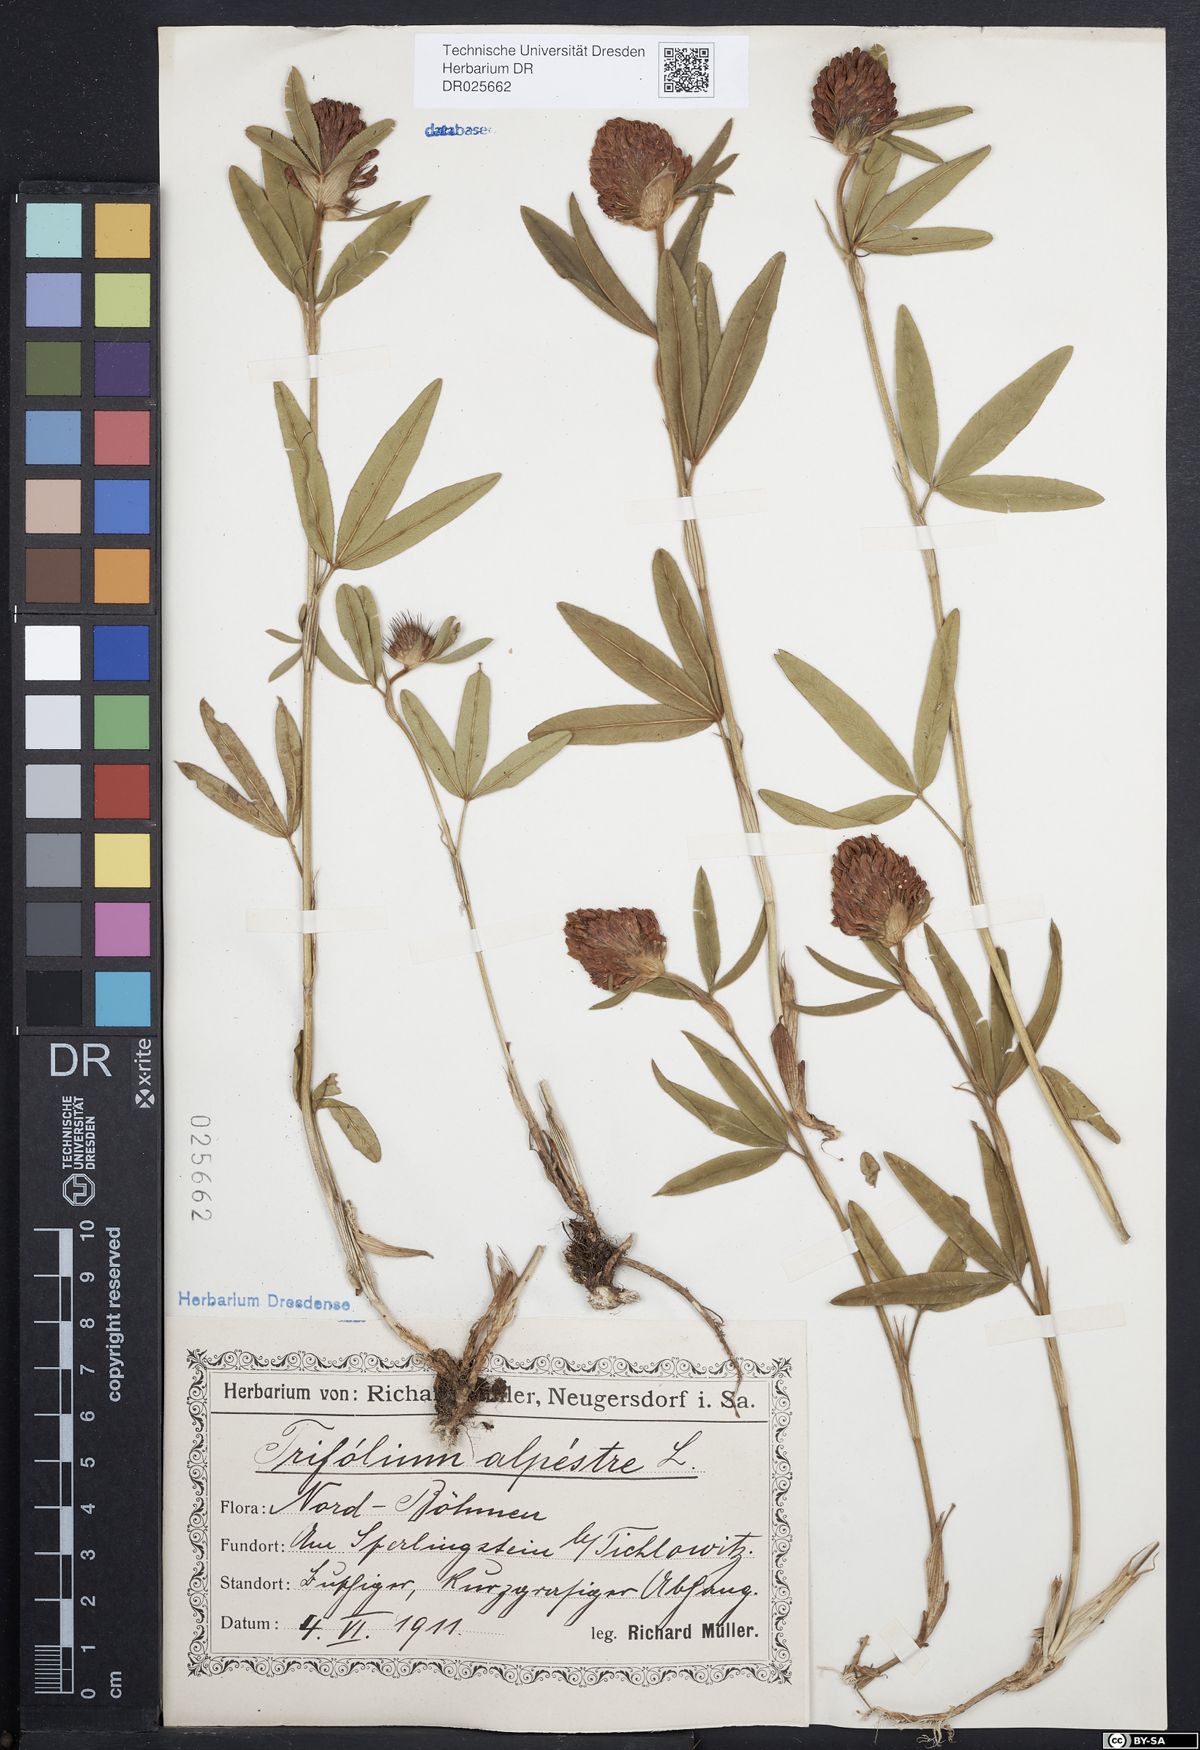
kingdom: Plantae
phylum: Tracheophyta
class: Magnoliopsida
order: Fabales
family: Fabaceae
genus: Trifolium
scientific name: Trifolium alpestre
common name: Owl-head clover
